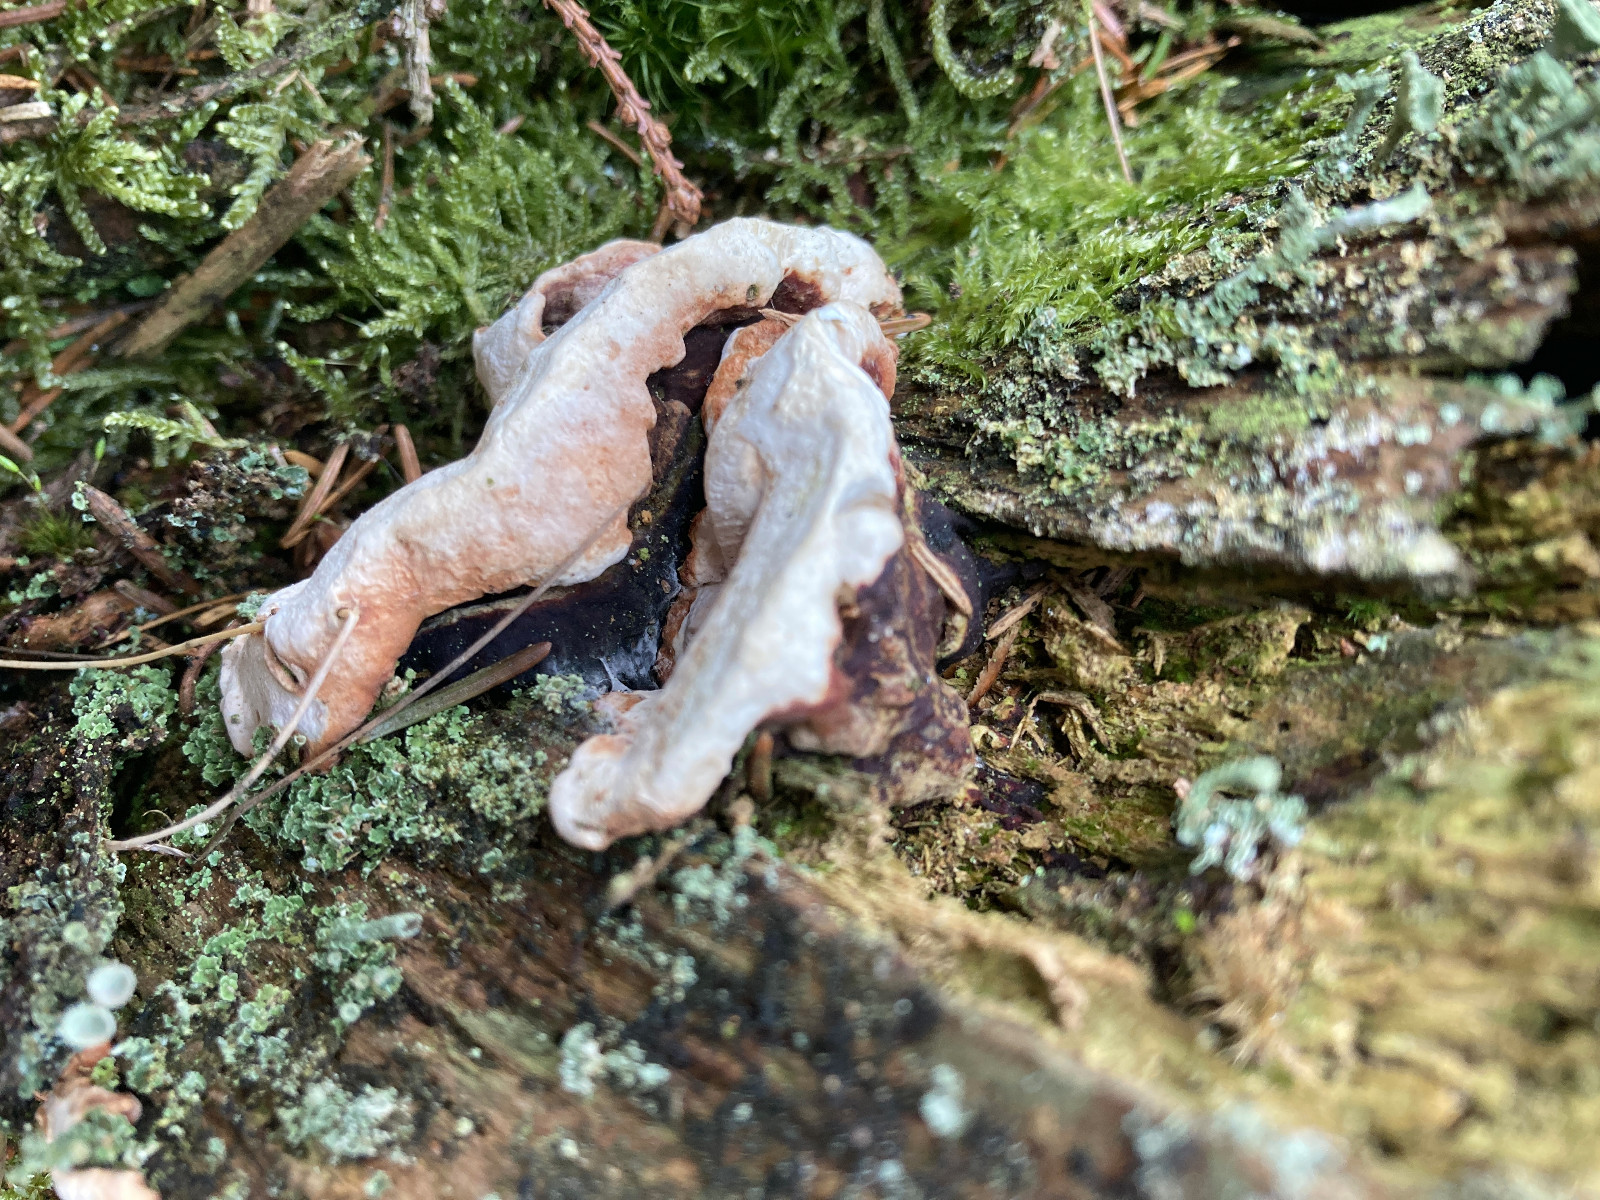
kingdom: Fungi
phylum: Basidiomycota
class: Agaricomycetes
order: Russulales
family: Bondarzewiaceae
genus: Heterobasidion
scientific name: Heterobasidion annosum
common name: almindelig rodfordærver
